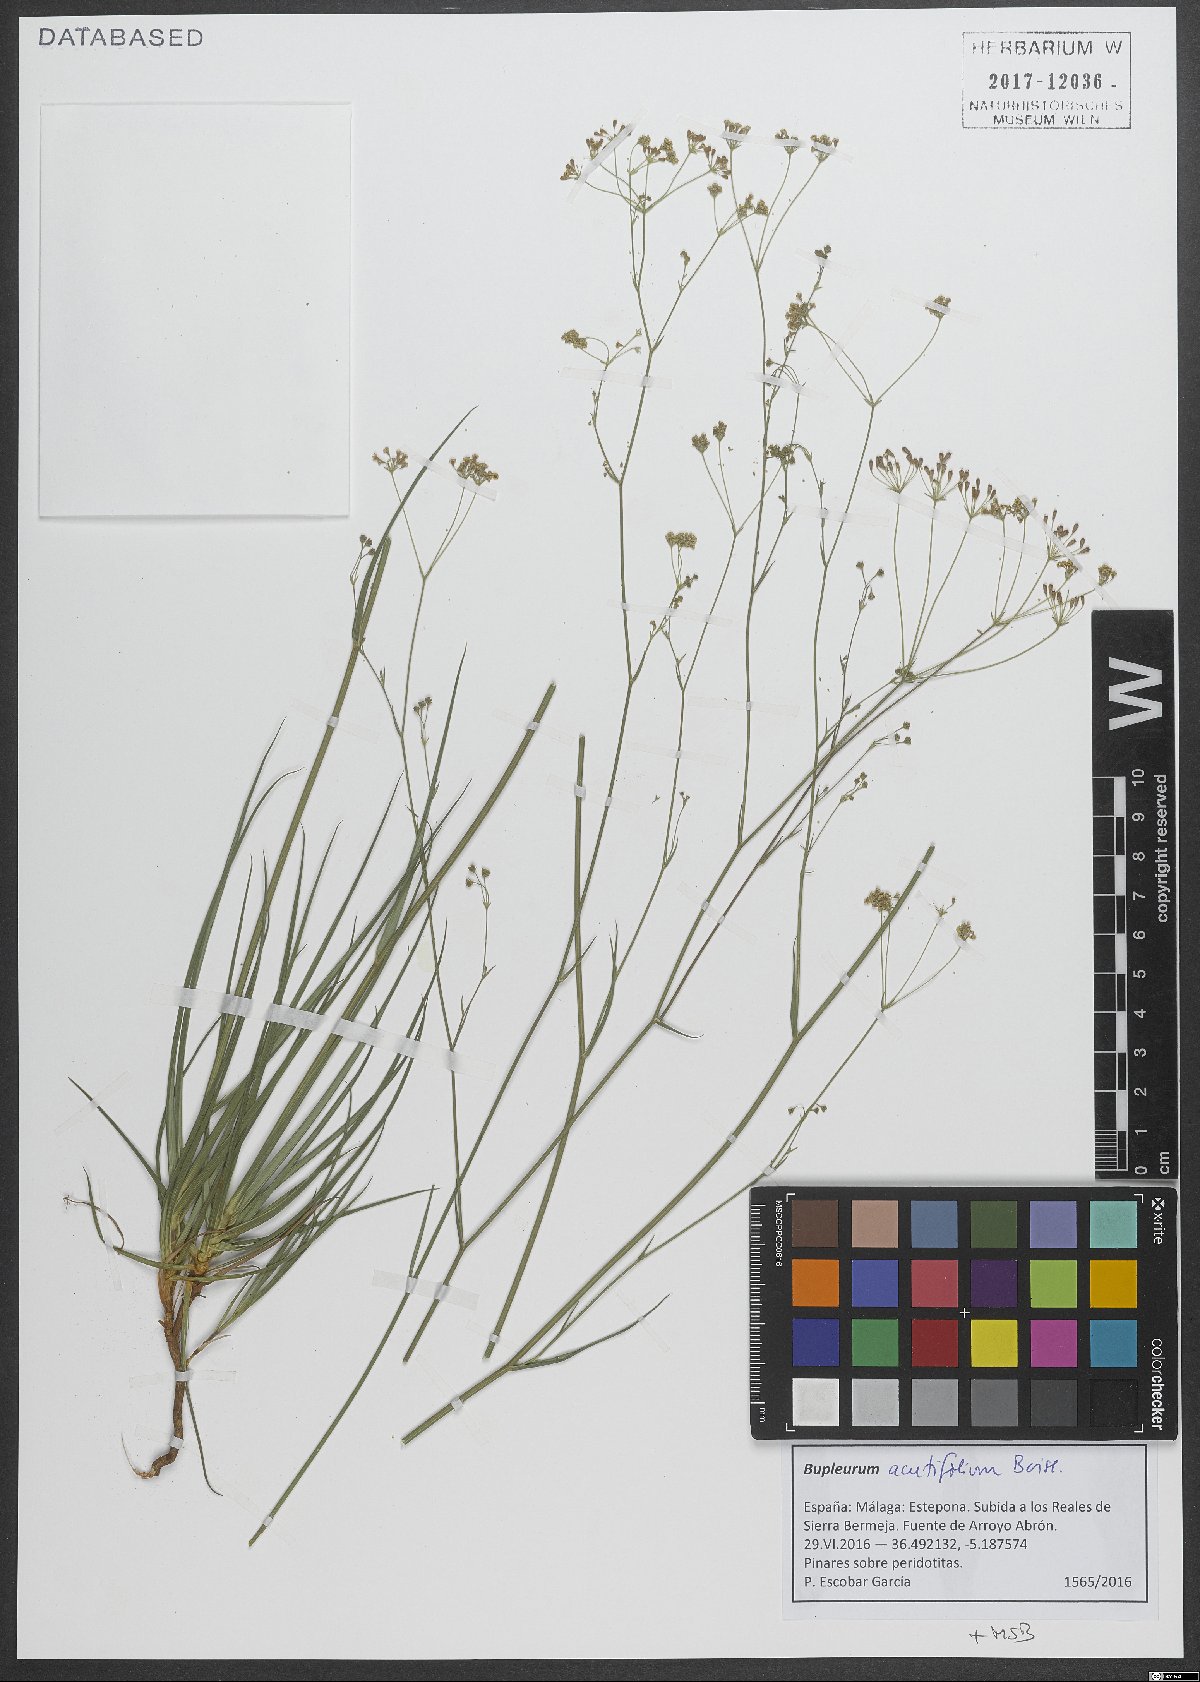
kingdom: Plantae
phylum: Tracheophyta
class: Magnoliopsida
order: Apiales
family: Apiaceae
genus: Bupleurum
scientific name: Bupleurum acutifolium
